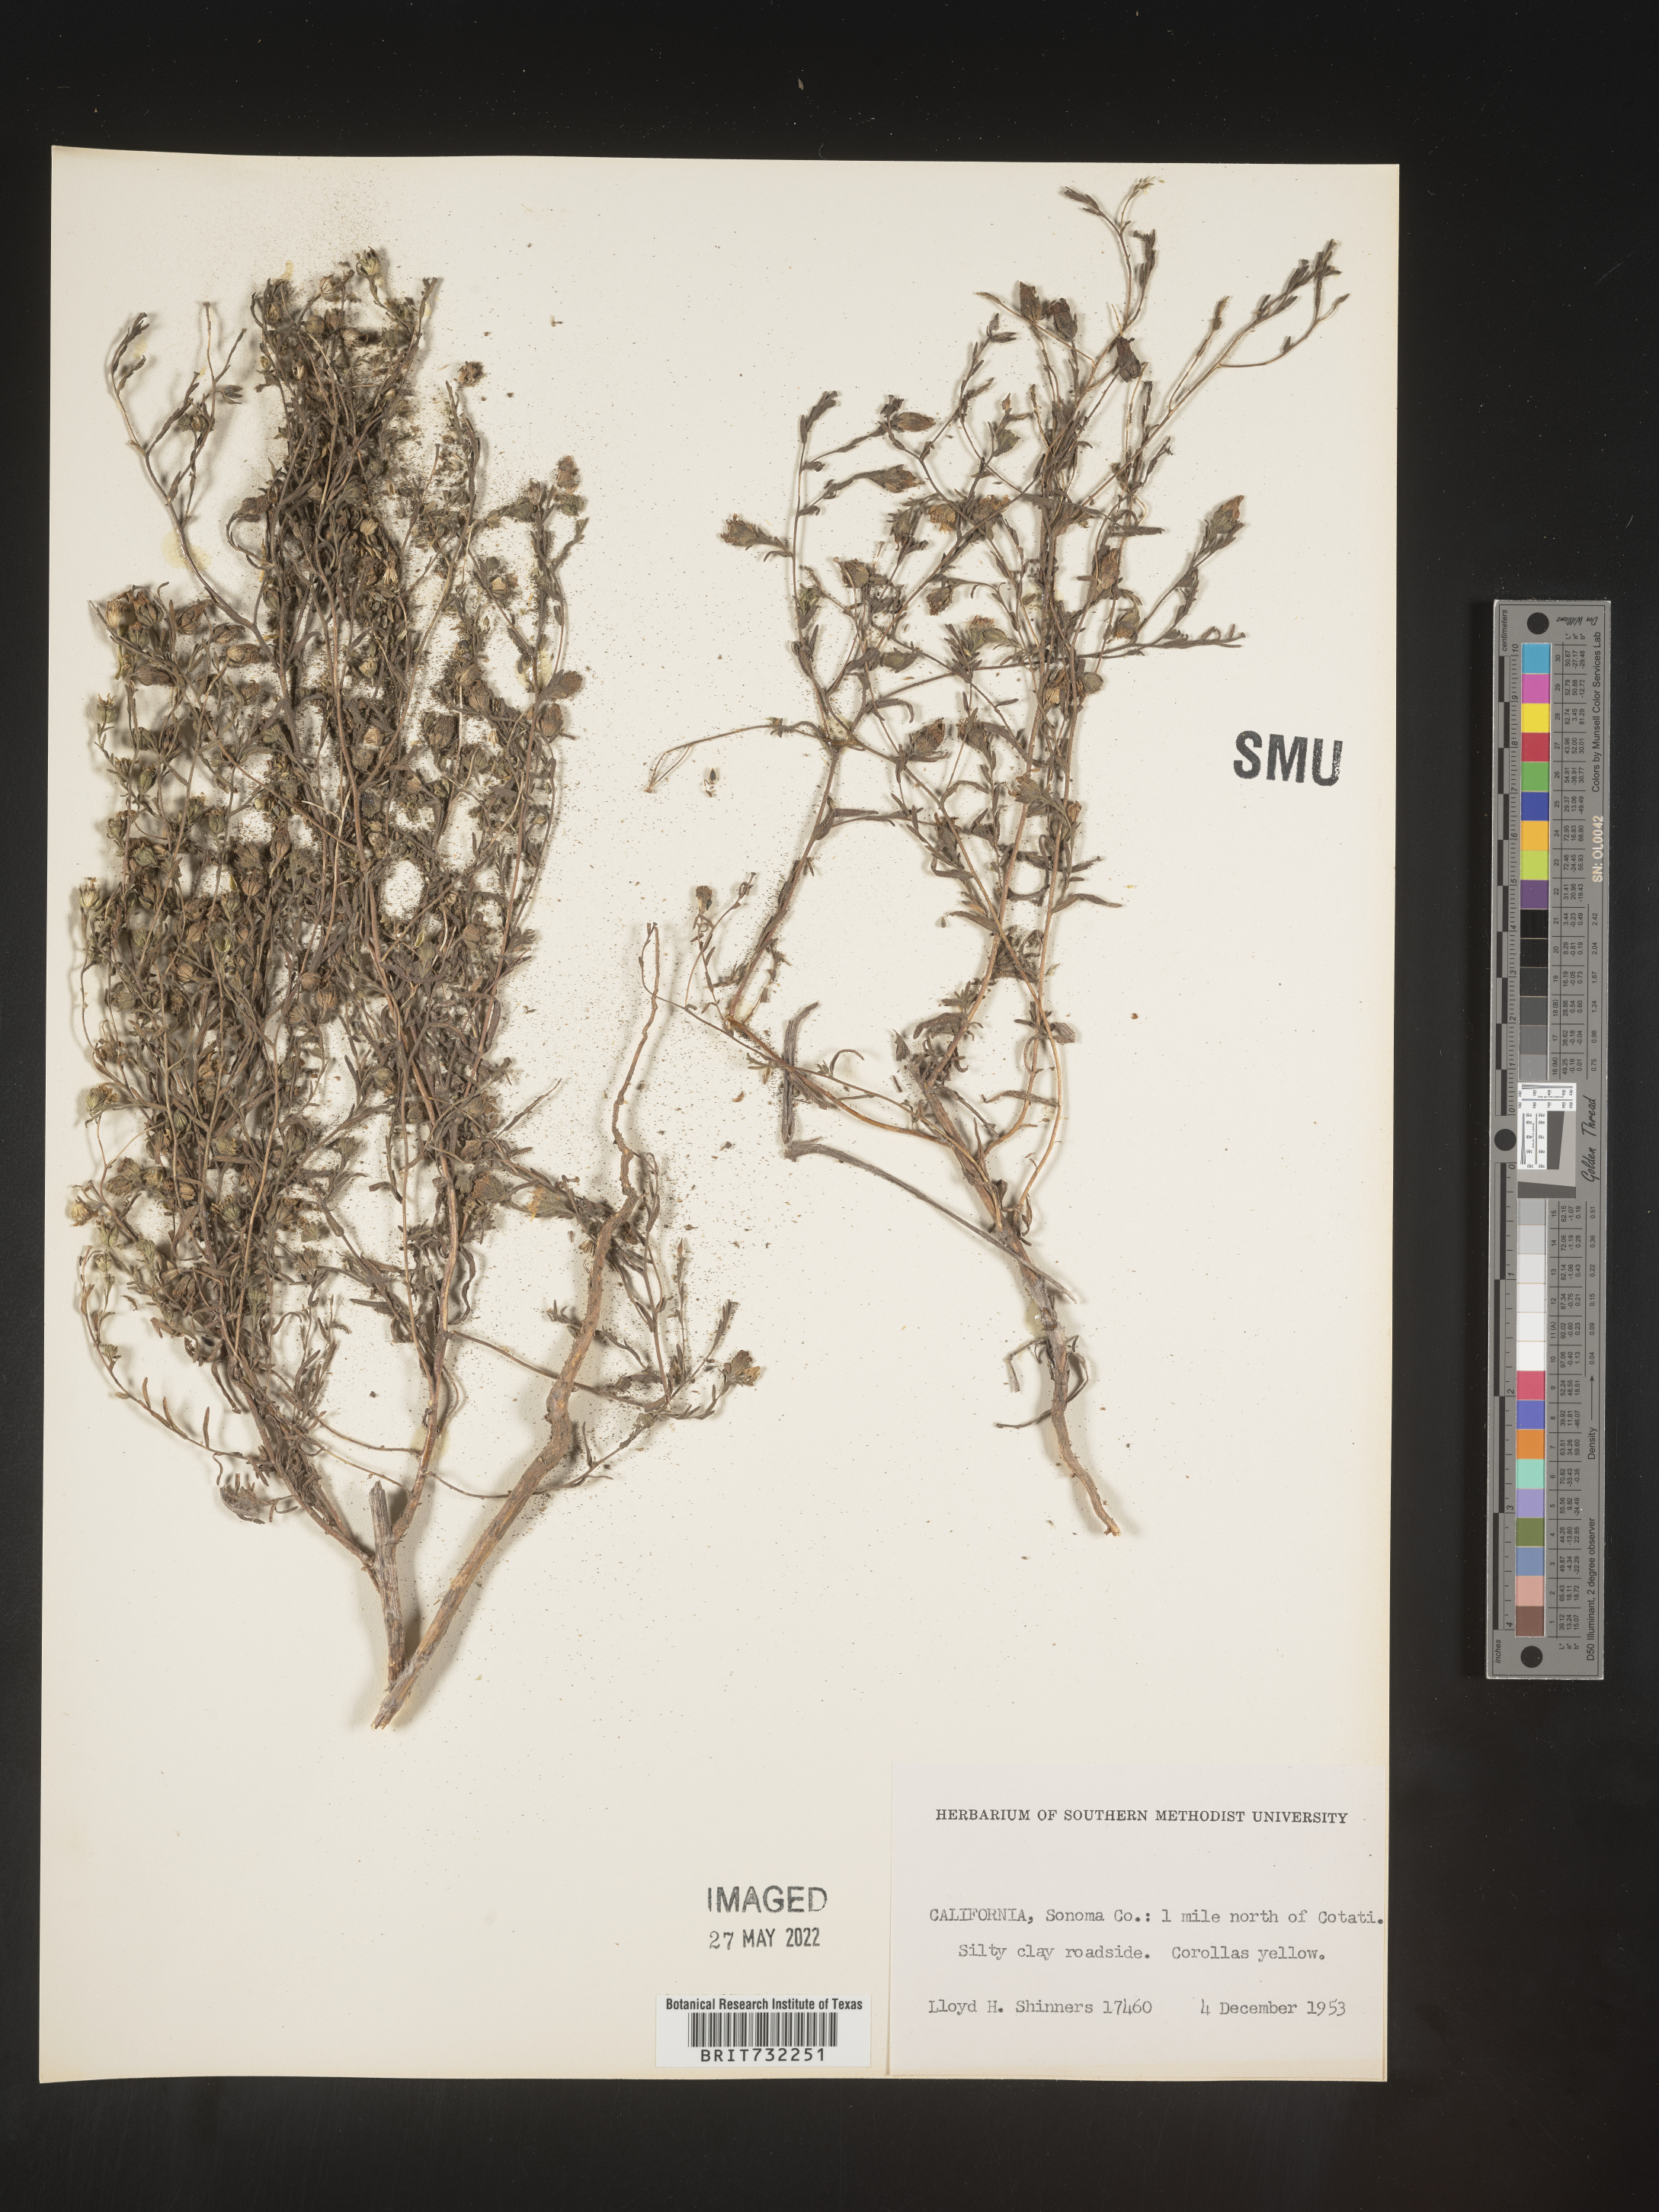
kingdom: Plantae
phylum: Tracheophyta
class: Magnoliopsida
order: Asterales
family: Asteraceae
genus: Madia
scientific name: Madia
